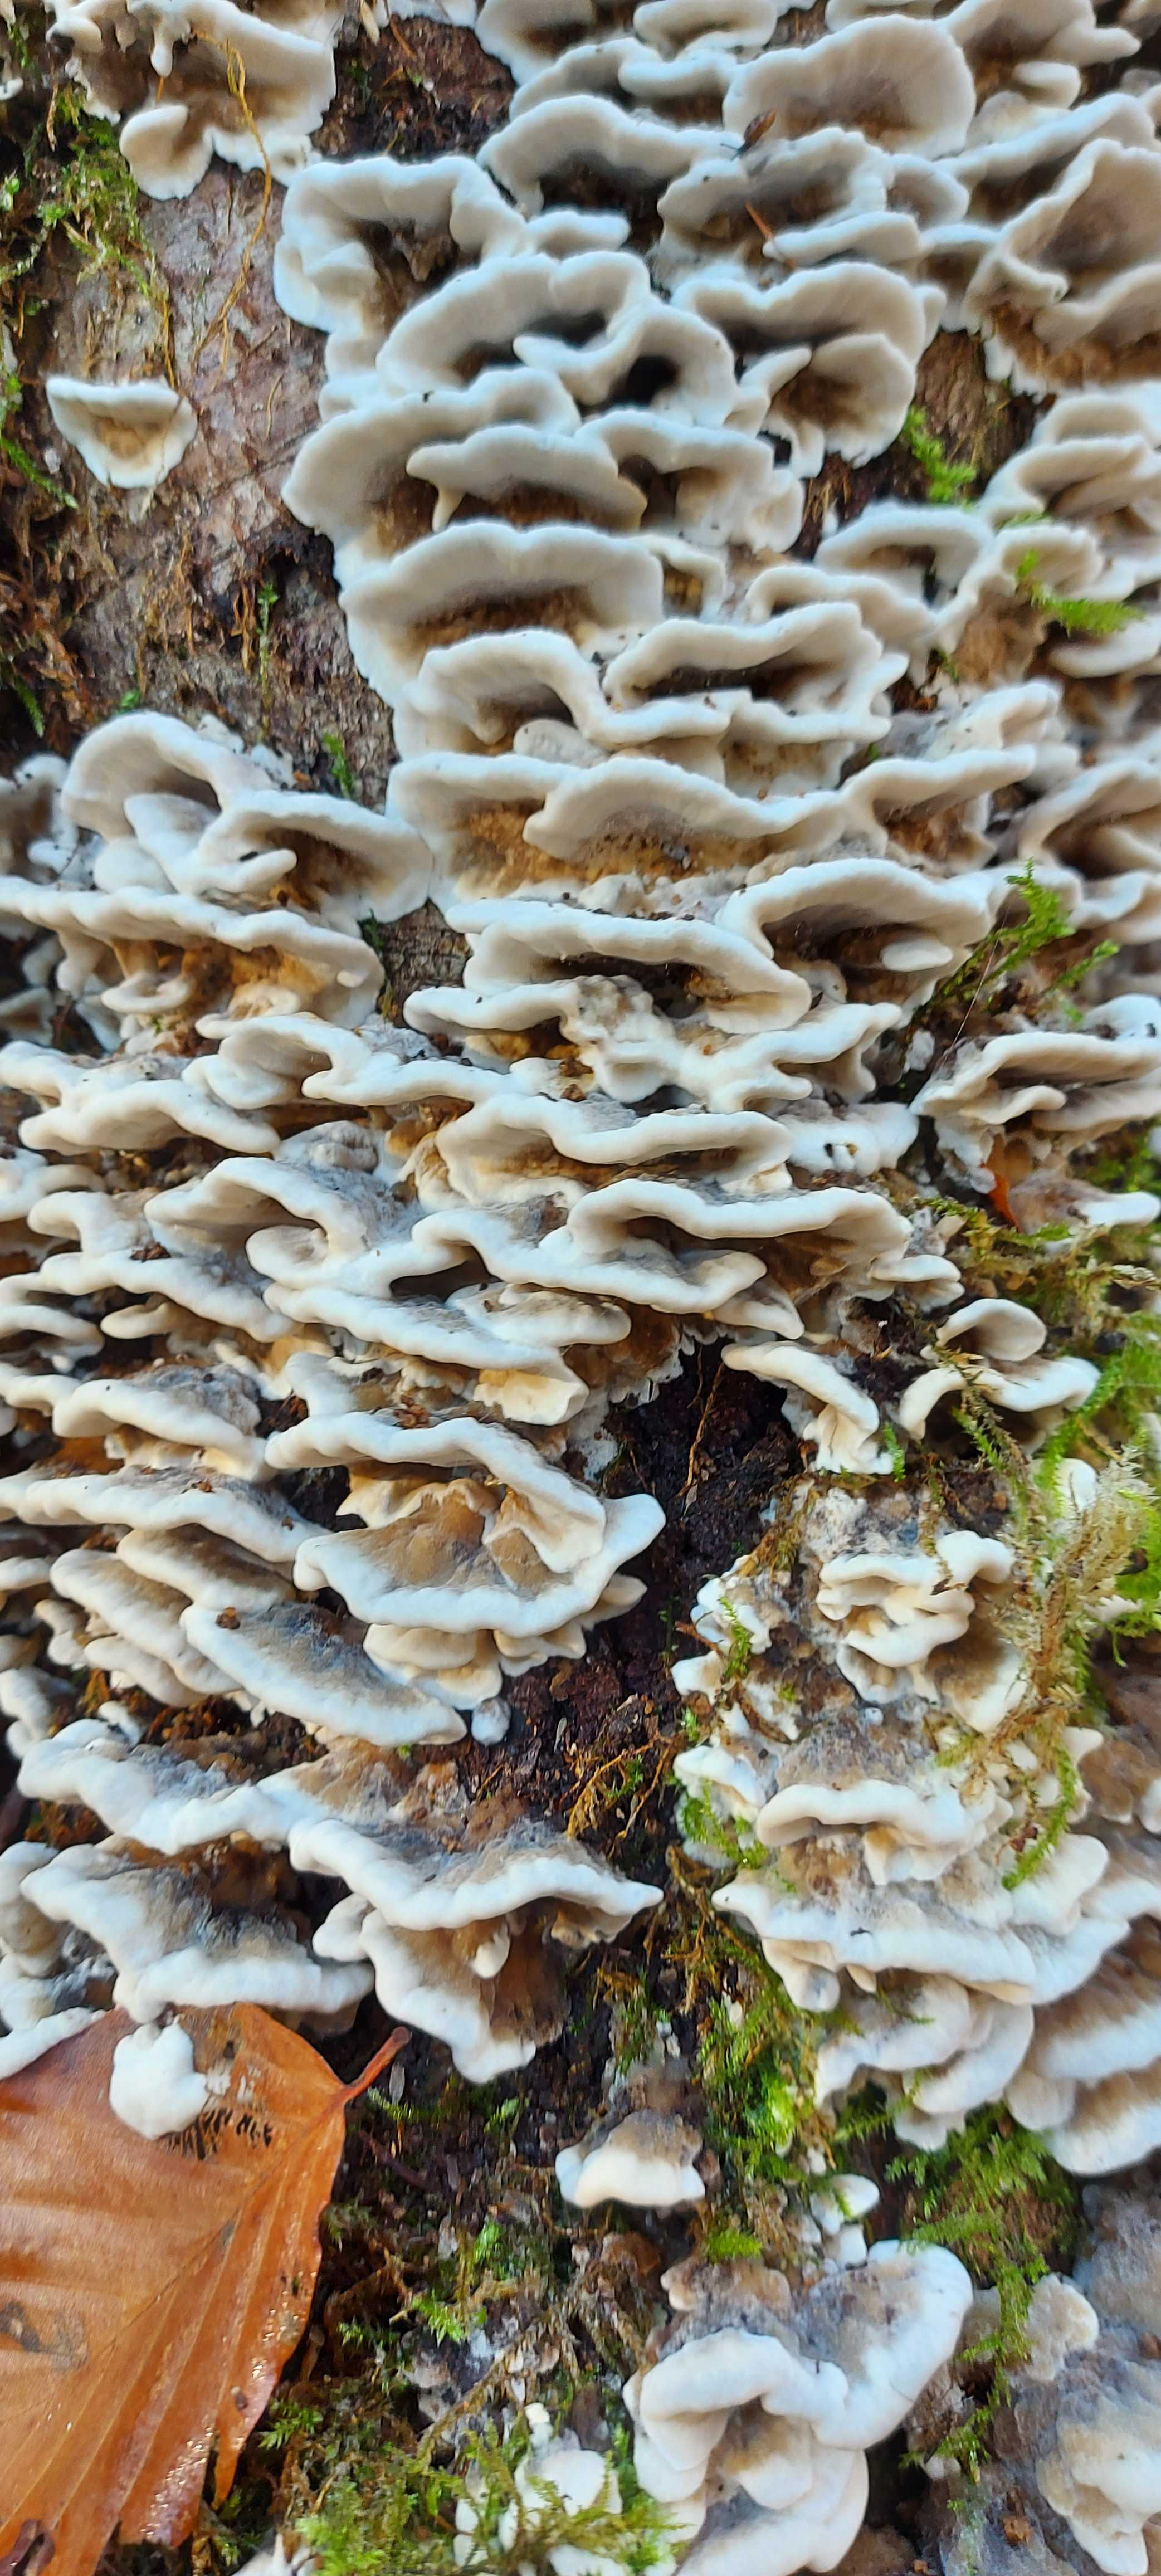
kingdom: Fungi
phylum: Basidiomycota
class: Agaricomycetes
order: Polyporales
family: Phanerochaetaceae
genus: Bjerkandera
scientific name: Bjerkandera adusta
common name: sveden sodporesvamp
